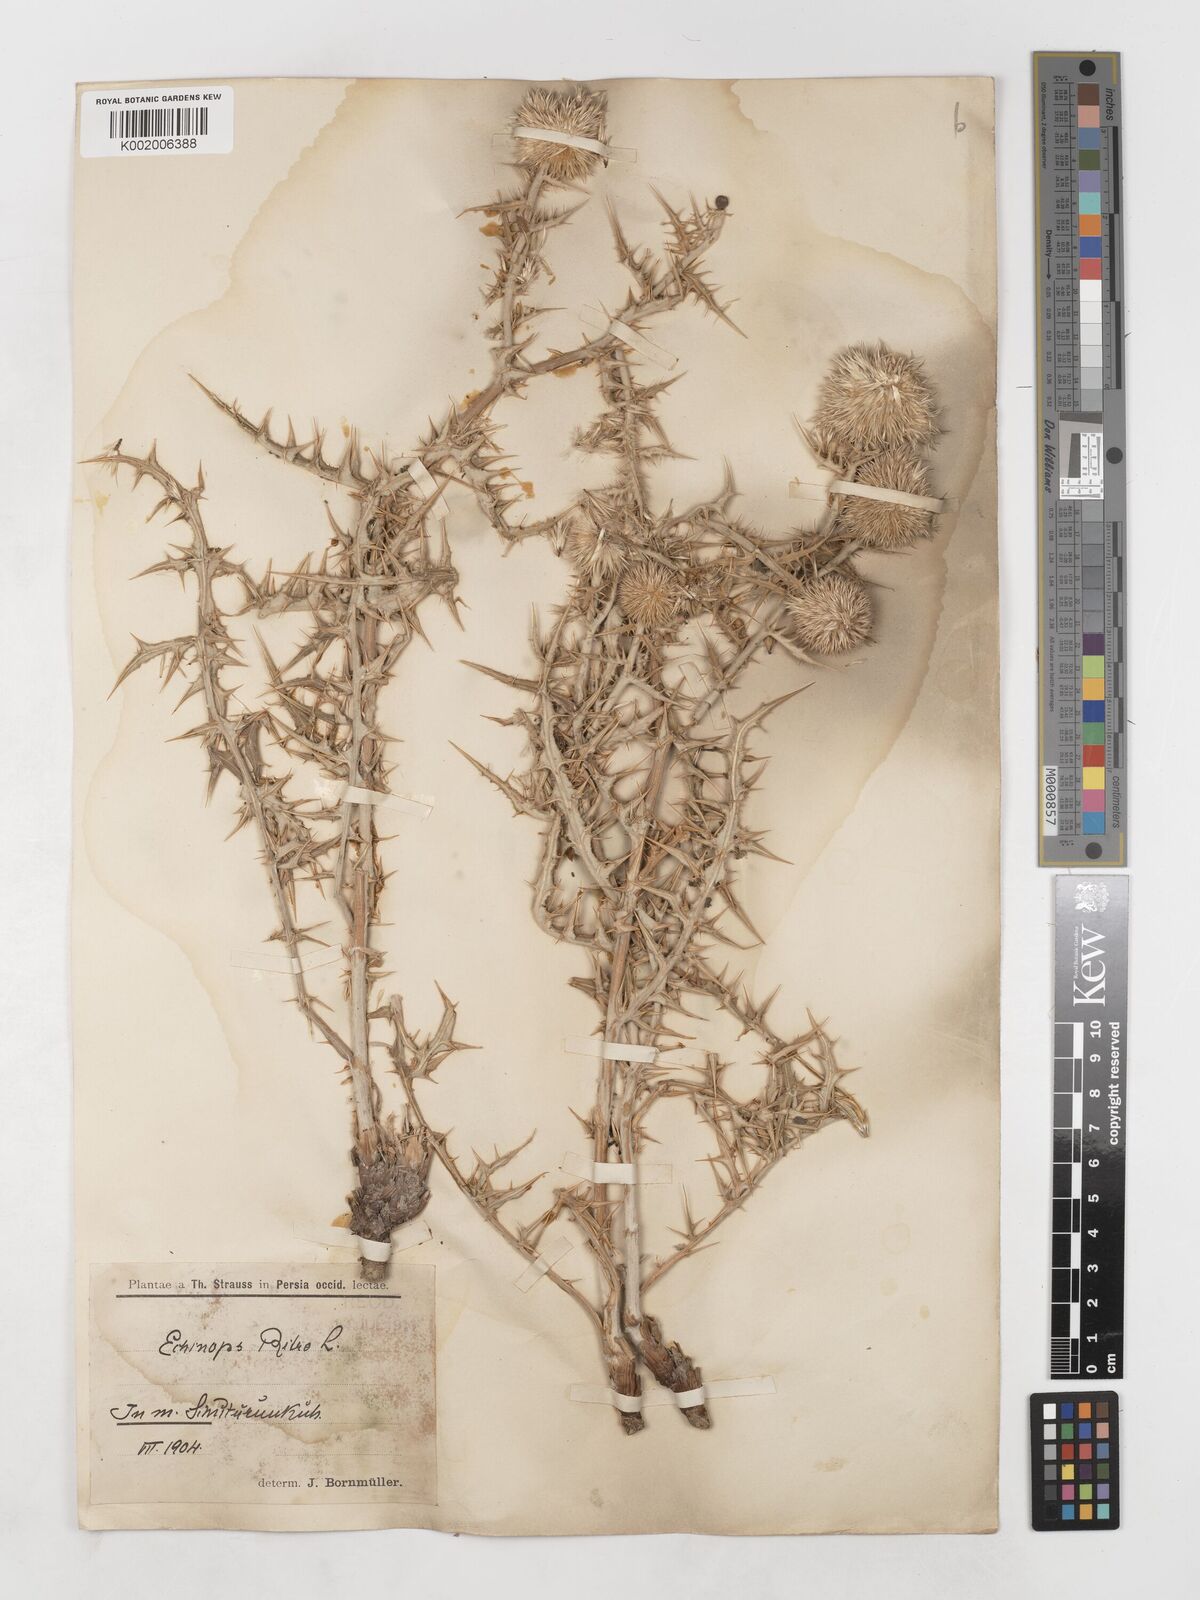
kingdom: Plantae
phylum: Tracheophyta
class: Magnoliopsida
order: Asterales
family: Asteraceae
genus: Echinops
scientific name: Echinops ritrodes
